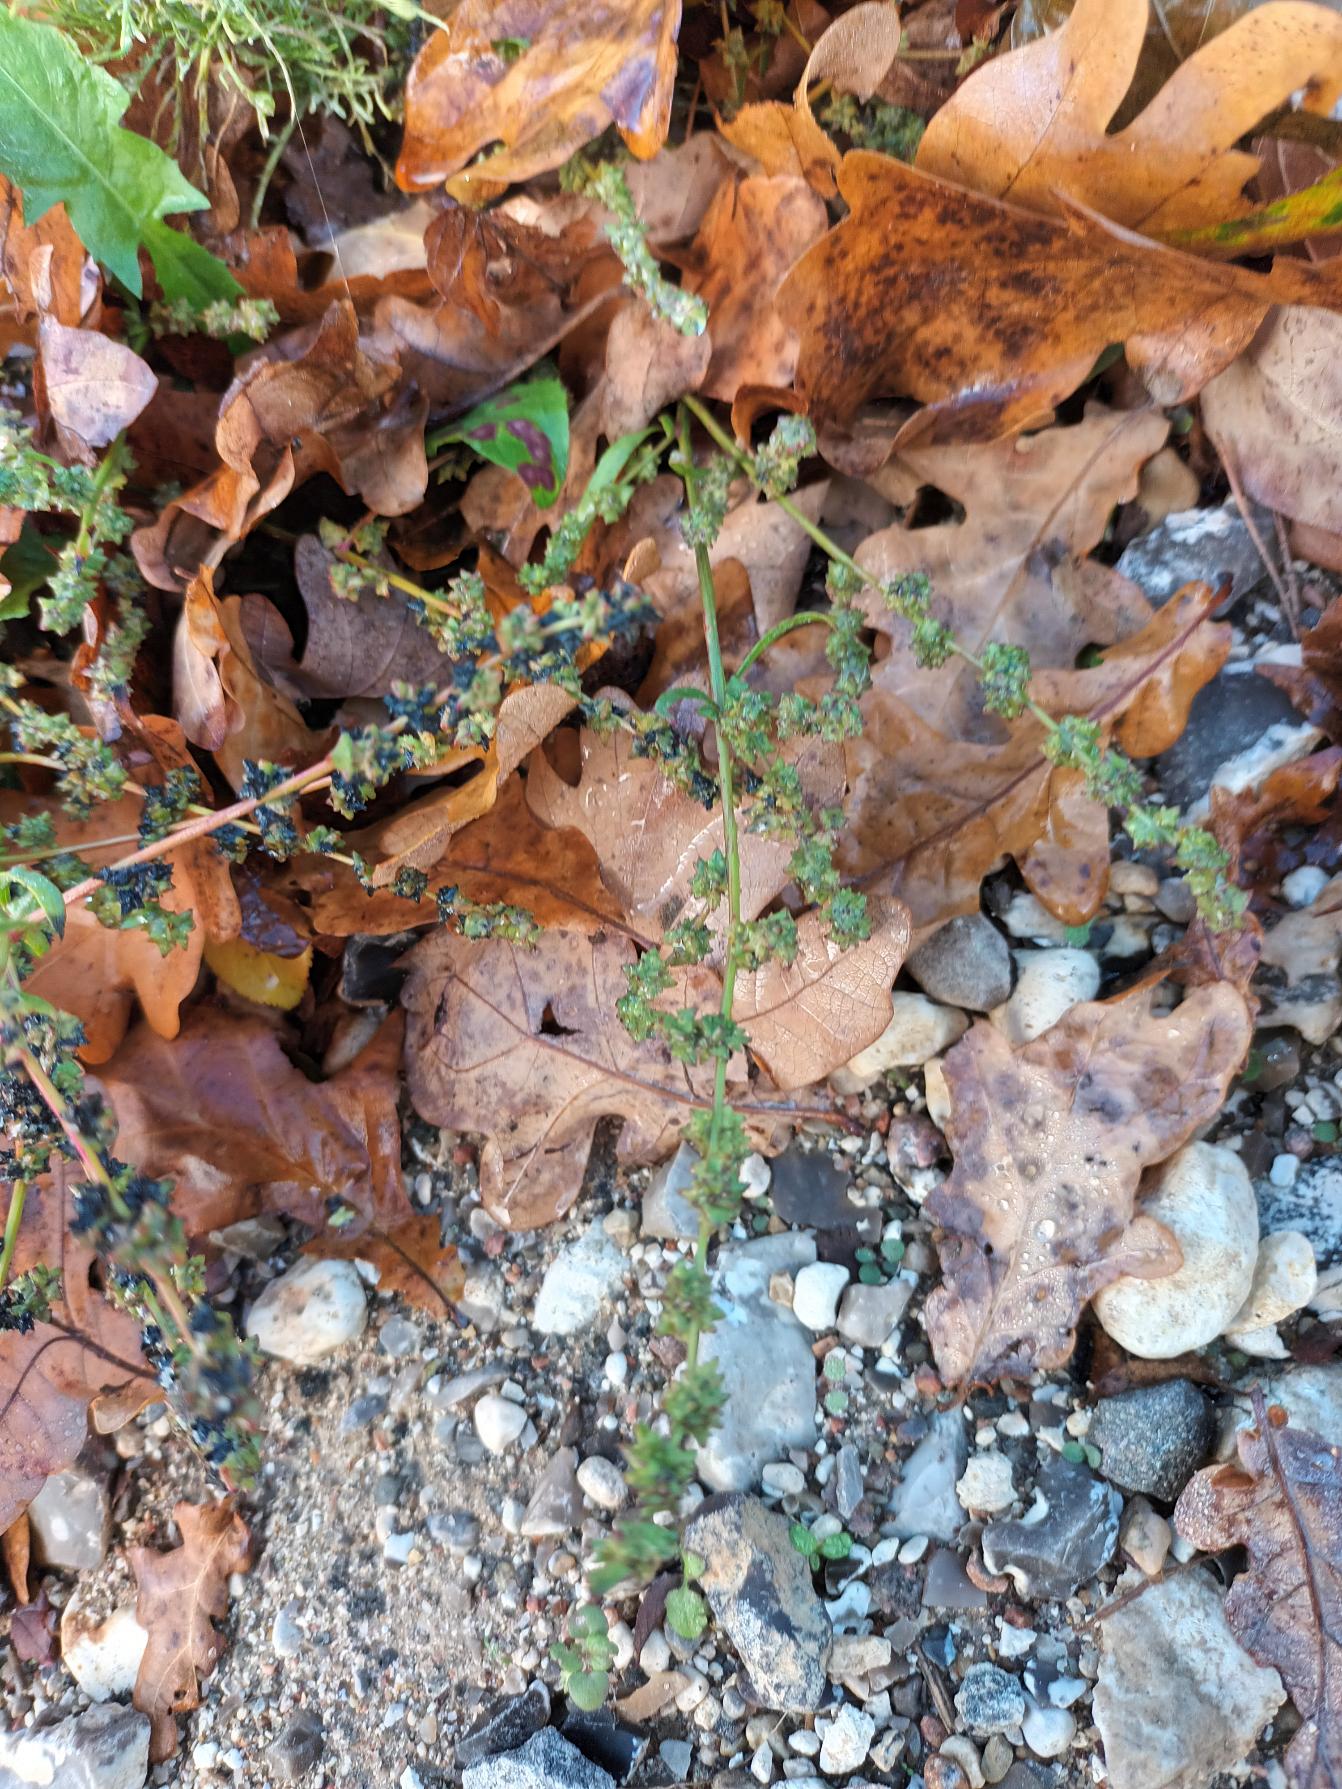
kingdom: Plantae
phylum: Tracheophyta
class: Magnoliopsida
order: Caryophyllales
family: Amaranthaceae
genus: Atriplex
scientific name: Atriplex patula
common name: Svine-mælde
